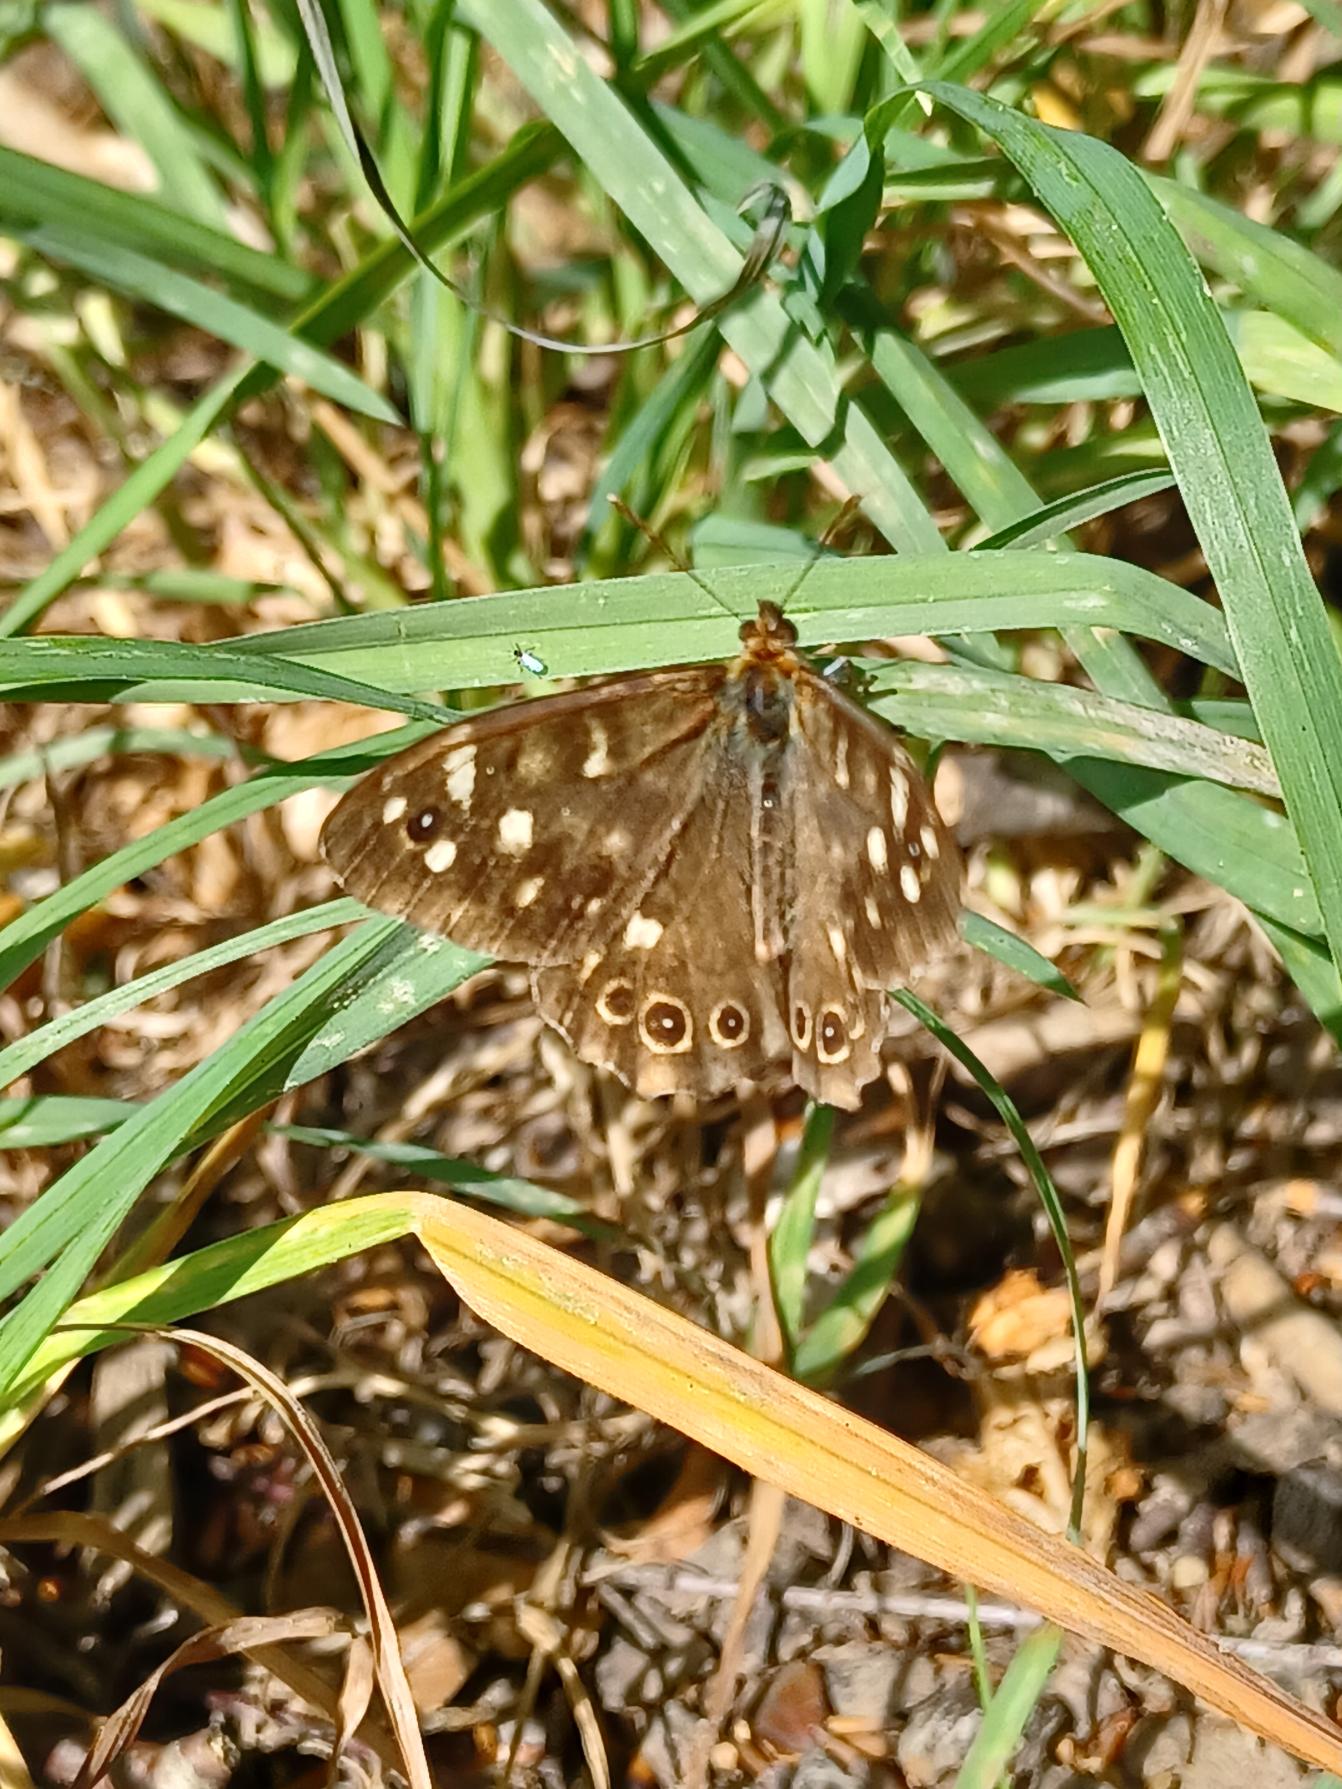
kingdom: Animalia
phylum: Arthropoda
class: Insecta
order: Lepidoptera
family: Nymphalidae
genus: Pararge
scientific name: Pararge aegeria
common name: Skovrandøje
